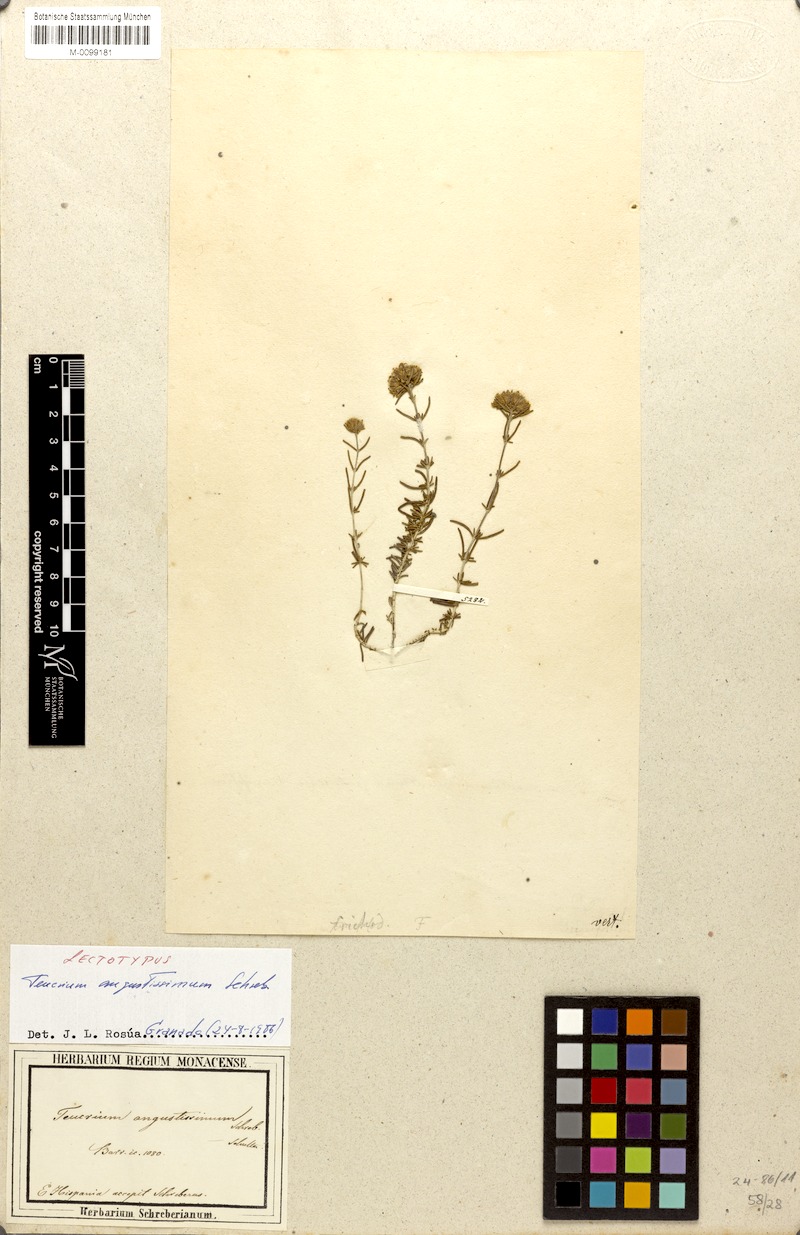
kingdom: Plantae
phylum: Tracheophyta
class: Magnoliopsida
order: Lamiales
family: Lamiaceae
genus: Teucrium
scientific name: Teucrium angustissimum
